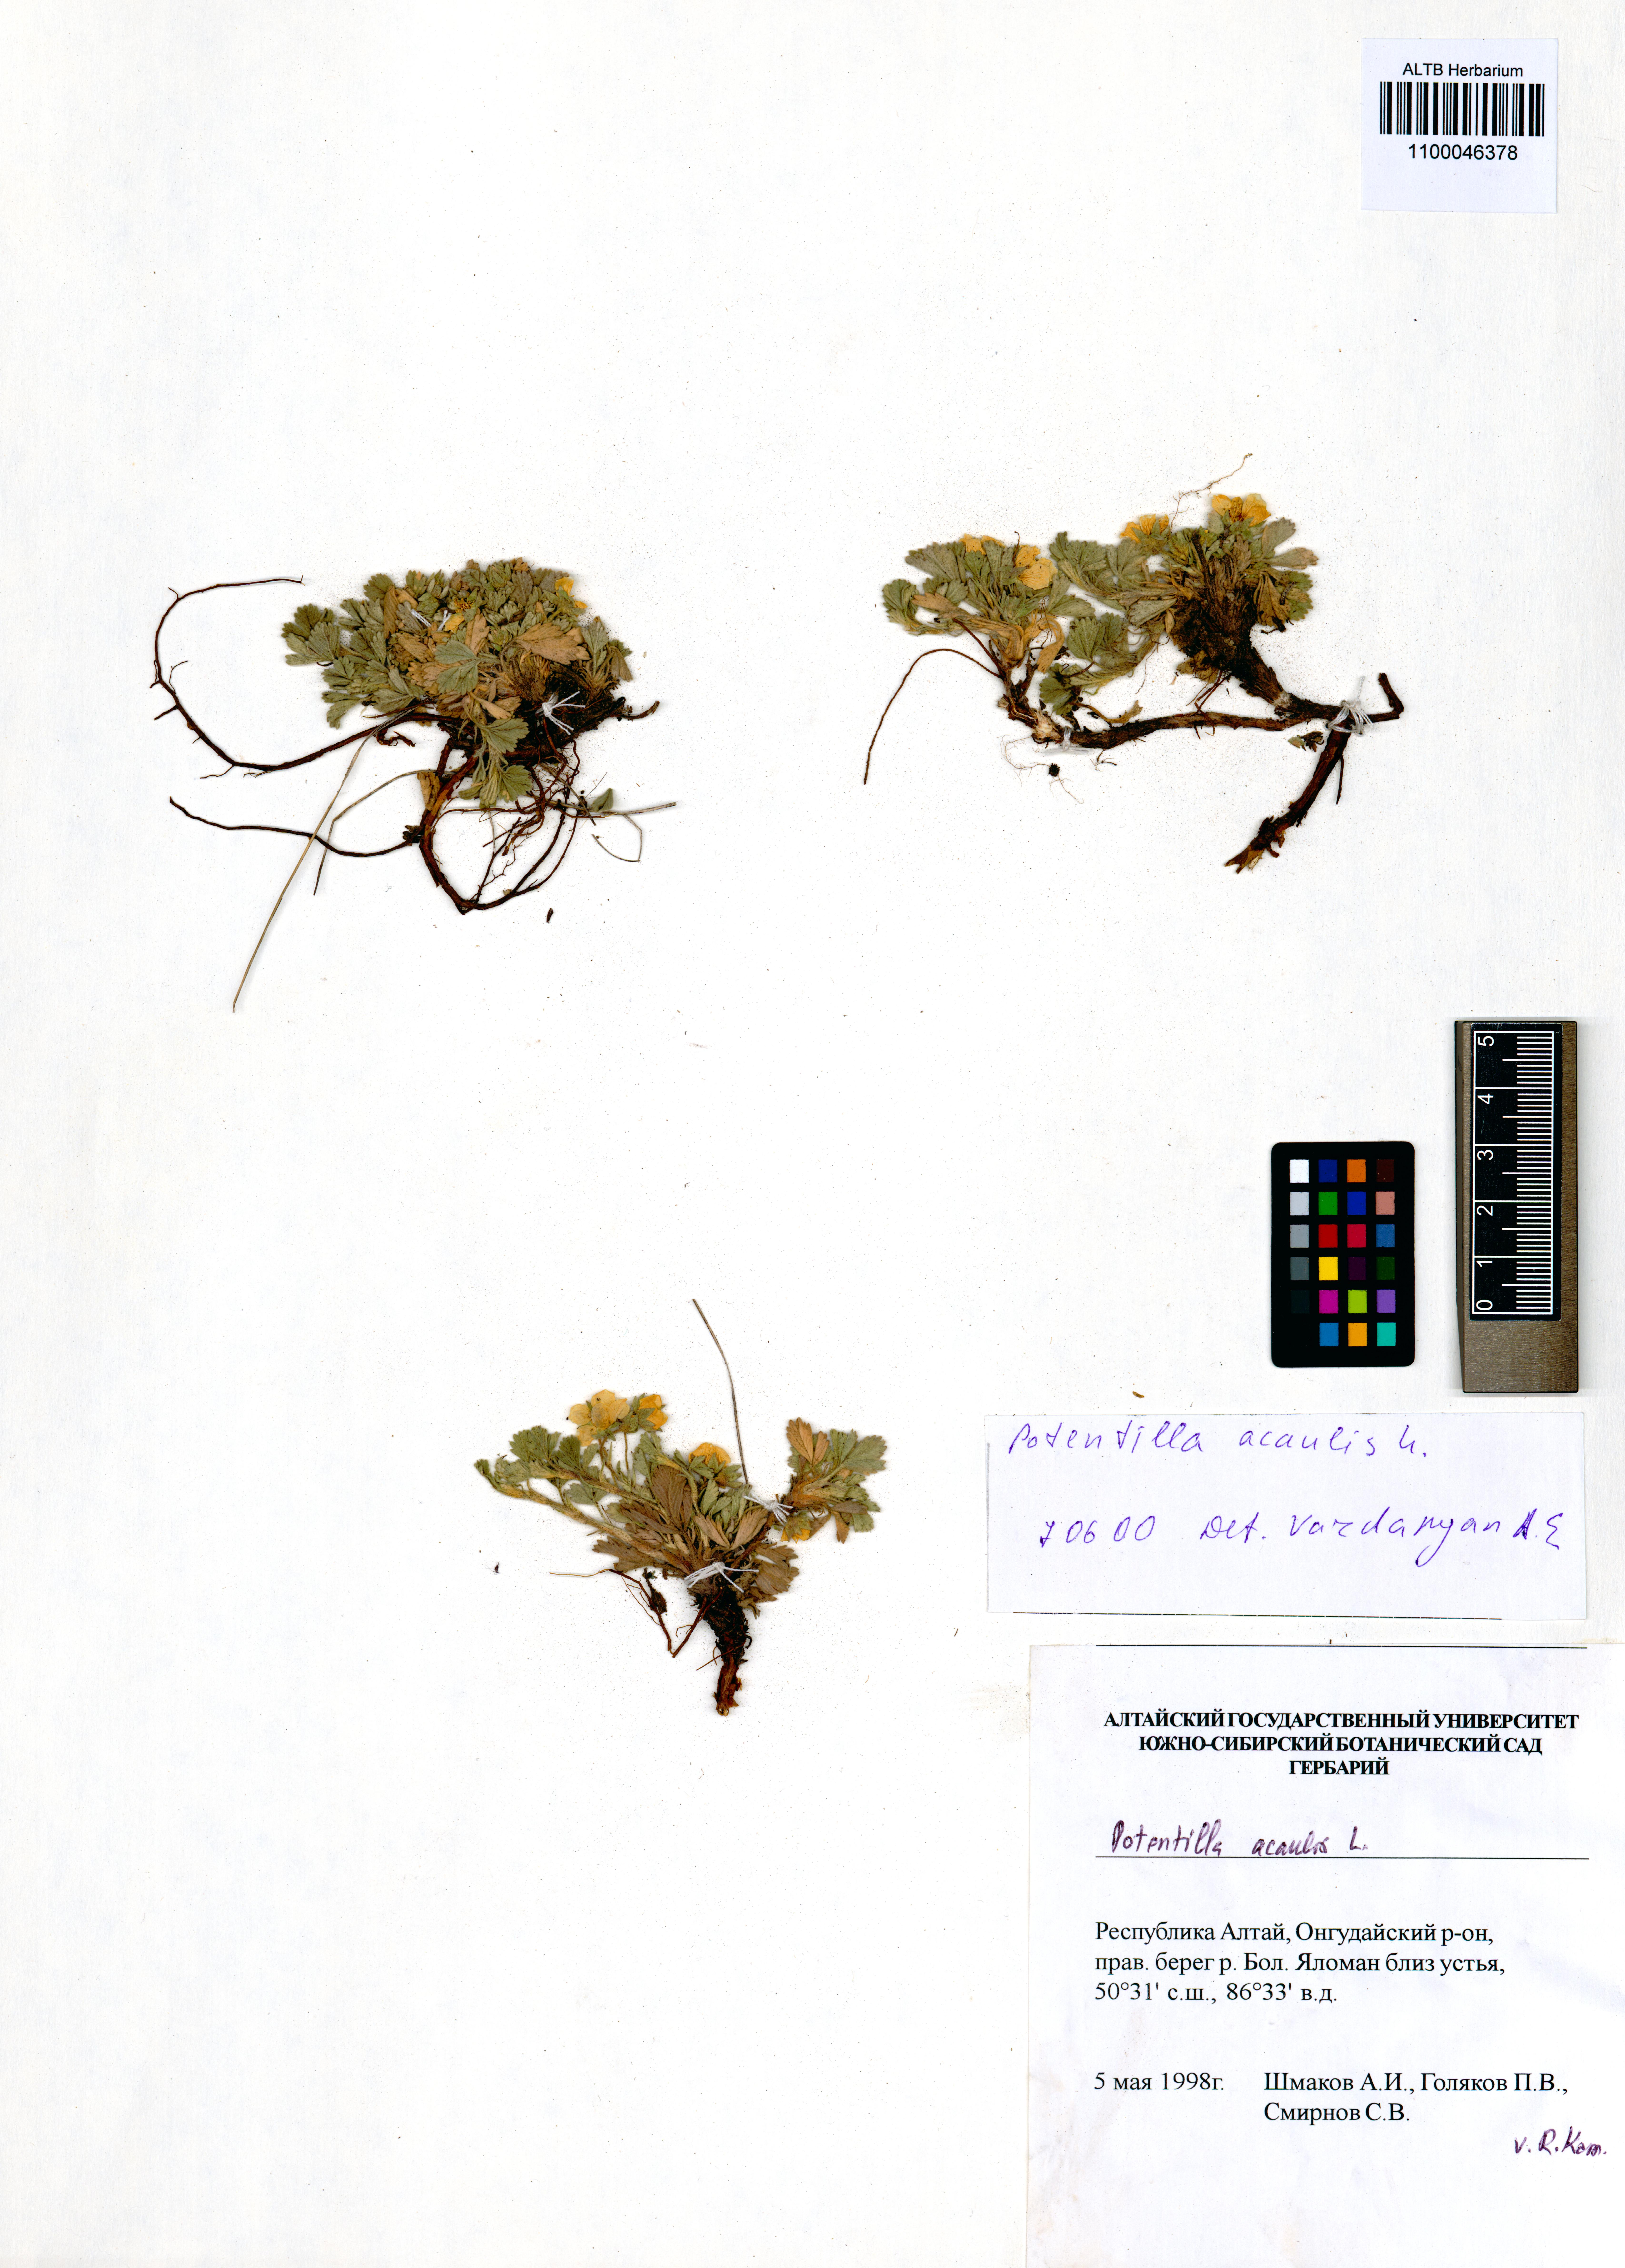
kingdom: Plantae
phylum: Tracheophyta
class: Magnoliopsida
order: Rosales
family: Rosaceae
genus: Potentilla
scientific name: Potentilla acaulis
